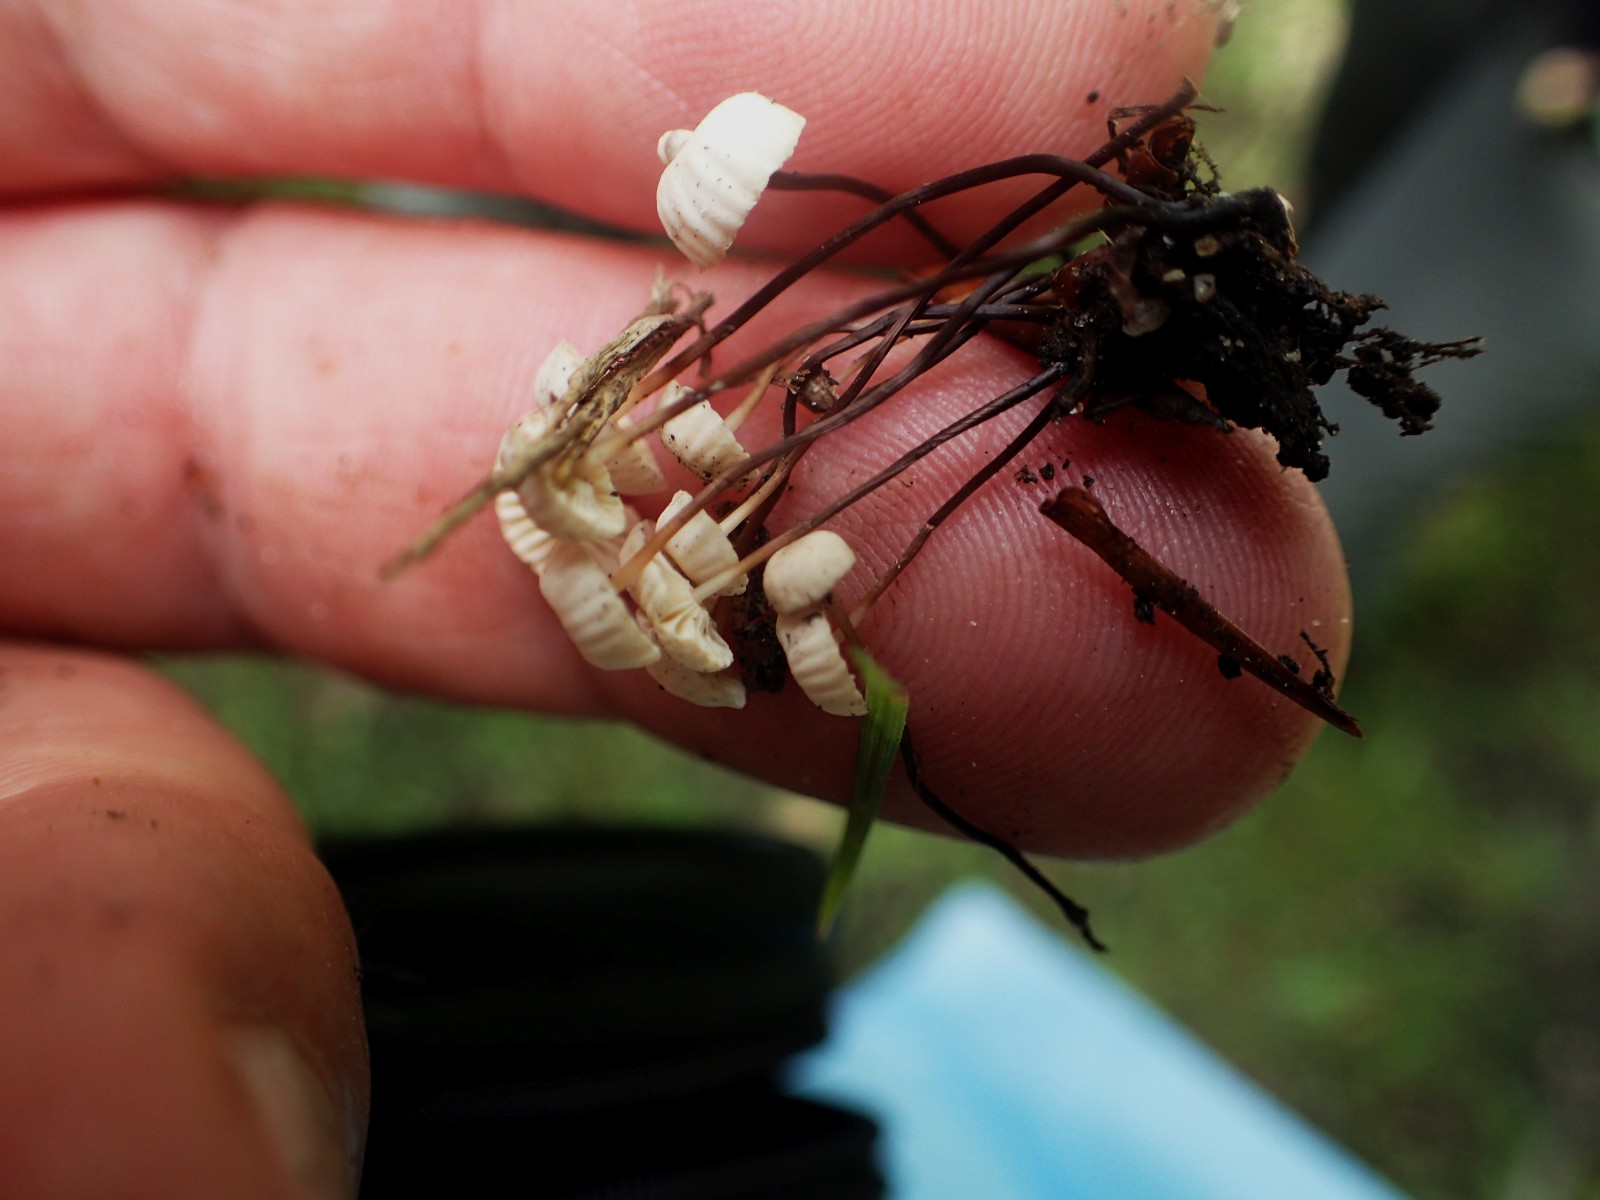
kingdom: Fungi
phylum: Basidiomycota
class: Agaricomycetes
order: Agaricales
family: Marasmiaceae
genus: Marasmius
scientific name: Marasmius rotula
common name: hjul-bruskhat
